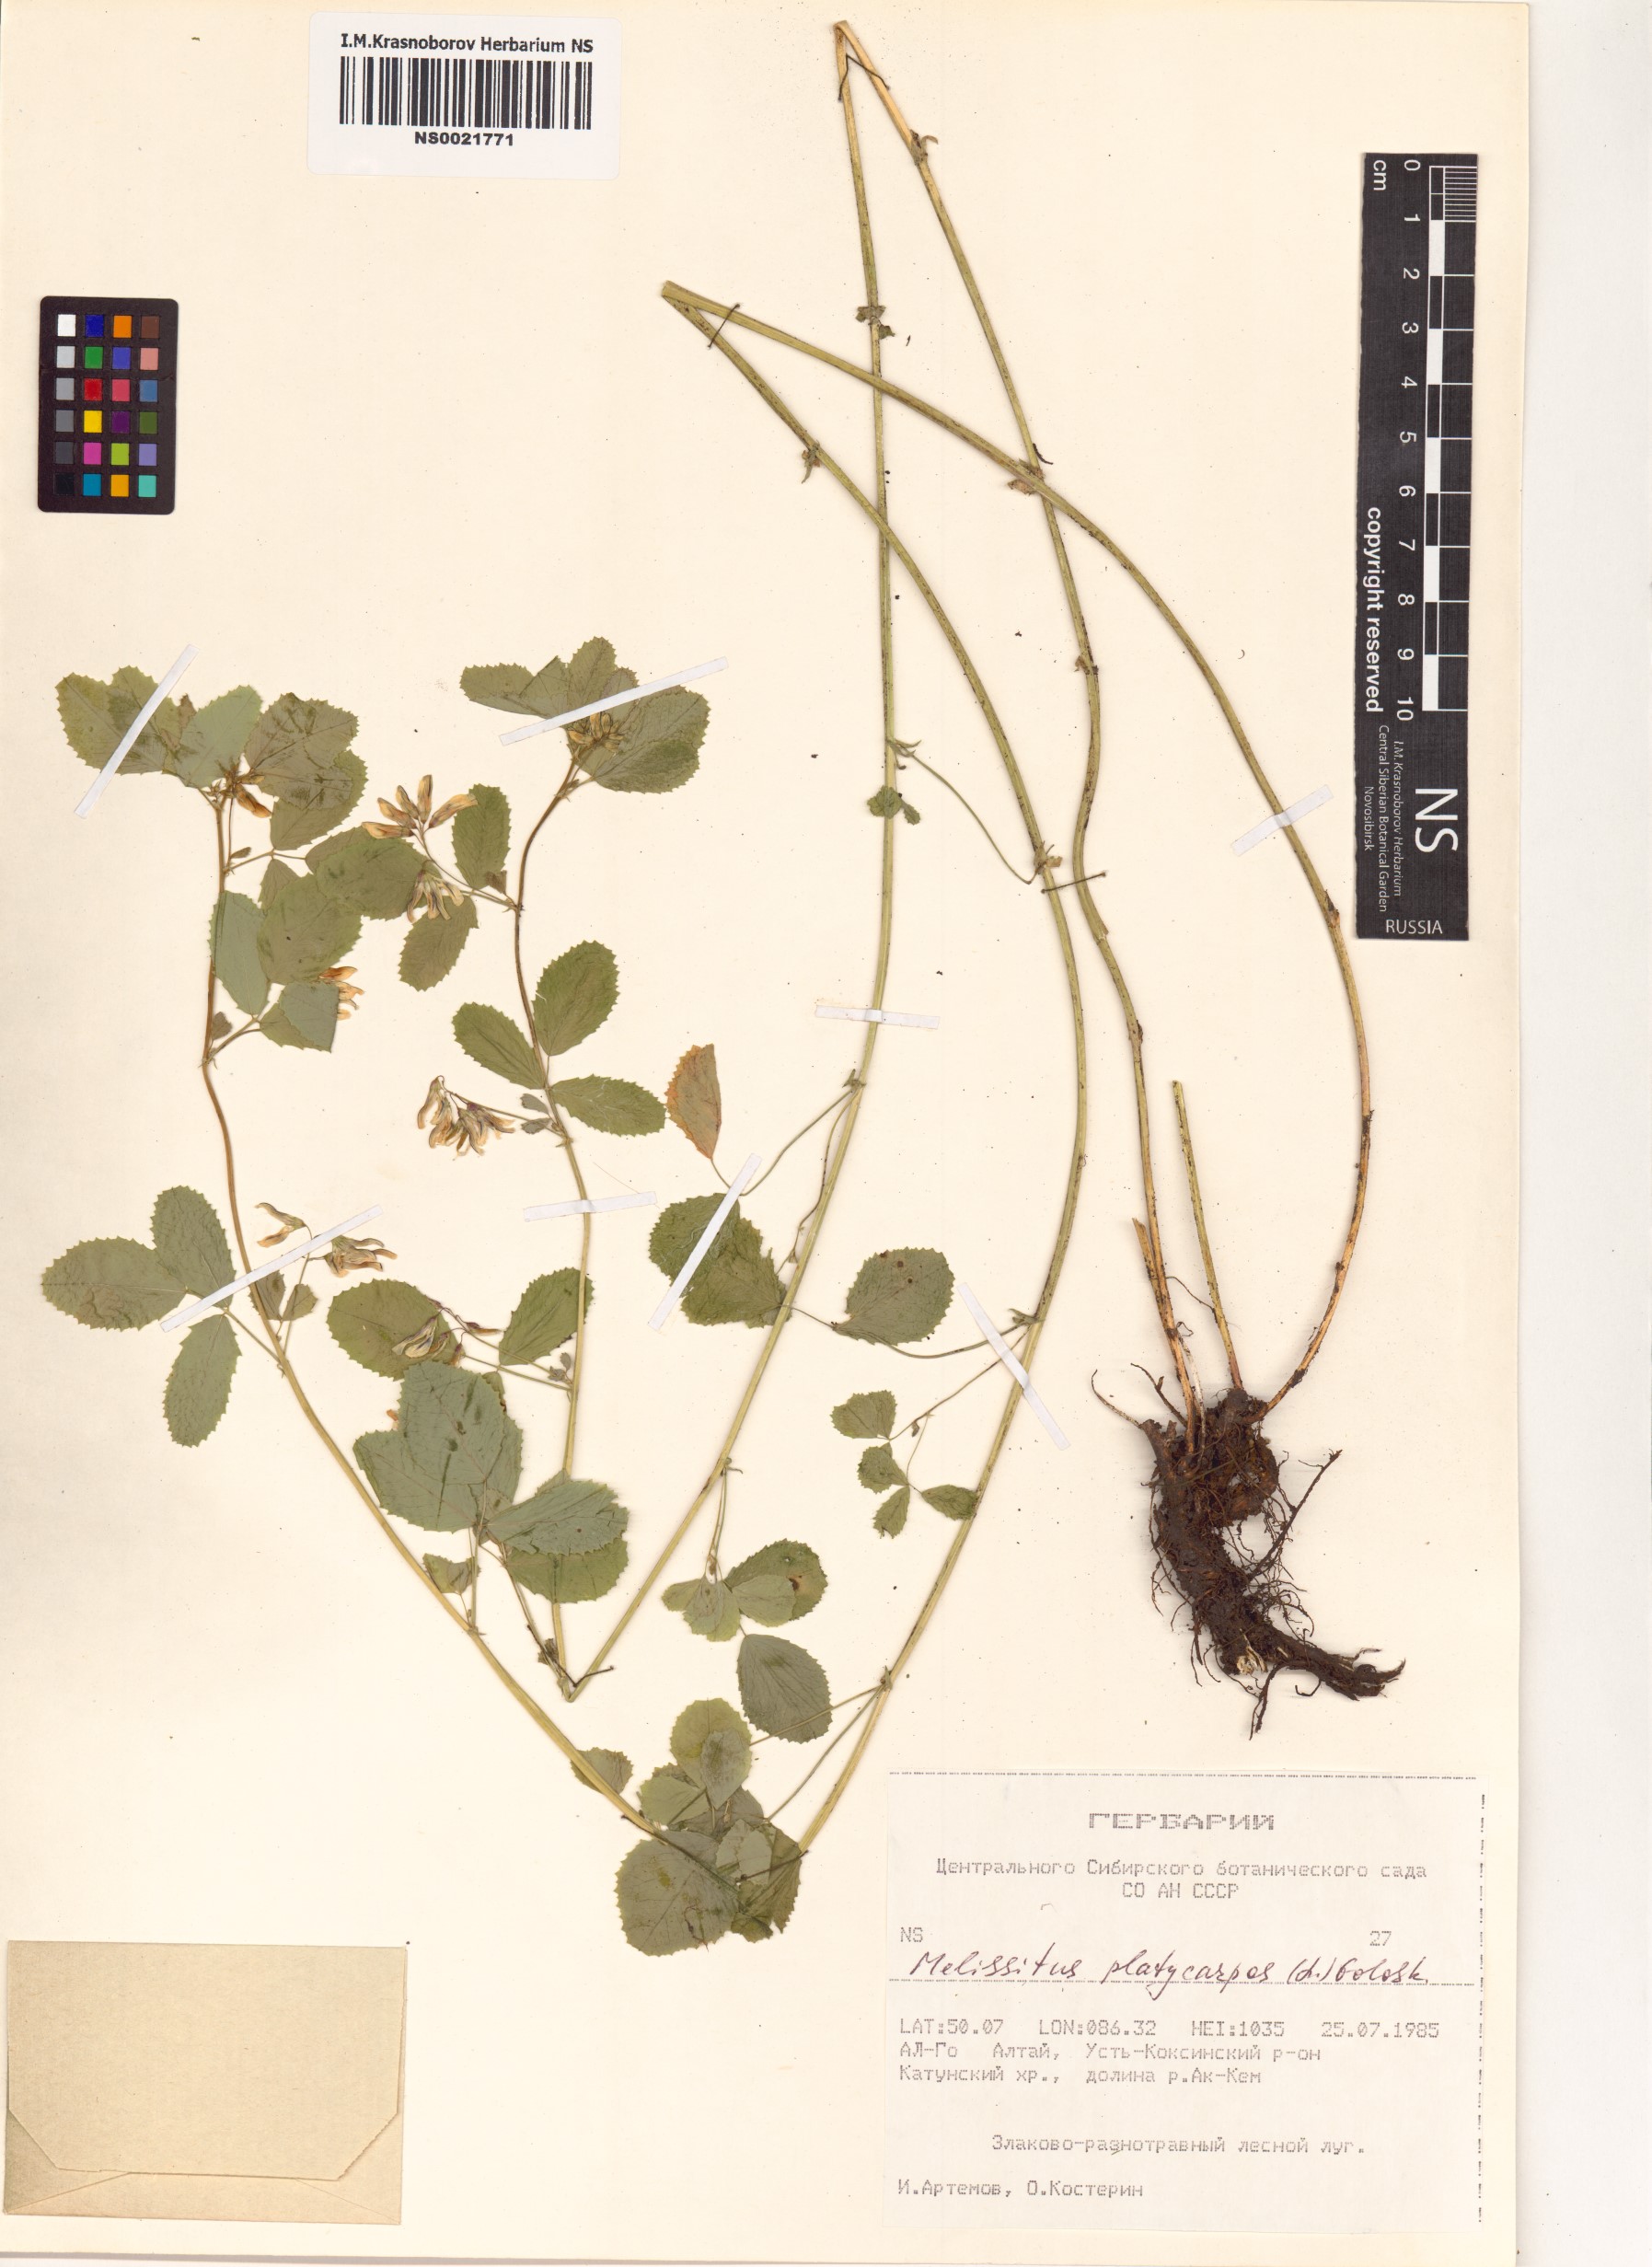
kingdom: Plantae
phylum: Tracheophyta
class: Magnoliopsida
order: Fabales
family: Fabaceae
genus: Medicago
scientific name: Medicago platycarpos
